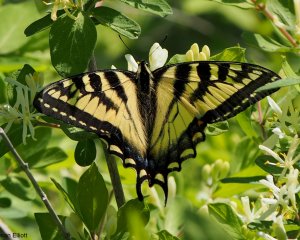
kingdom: Animalia
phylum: Arthropoda
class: Insecta
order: Lepidoptera
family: Papilionidae
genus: Pterourus
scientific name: Pterourus canadensis
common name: Canadian Tiger Swallowtail
